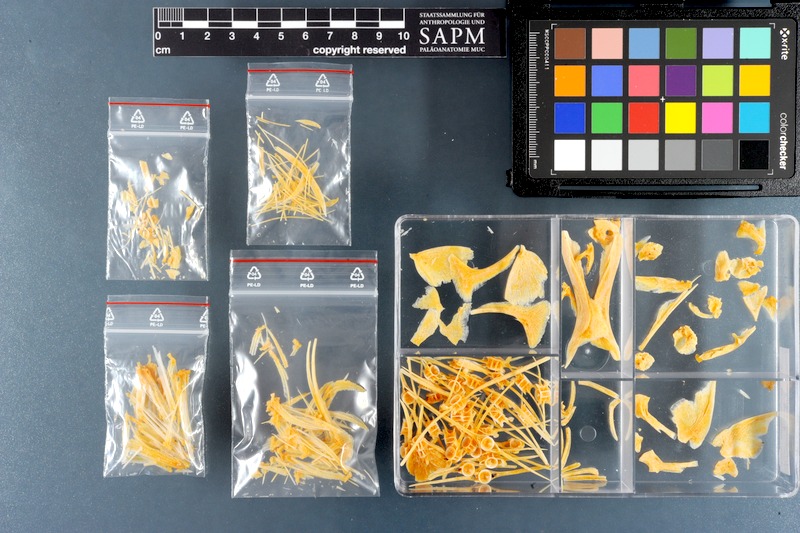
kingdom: Animalia
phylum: Chordata
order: Perciformes
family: Stromateidae
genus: Pampus
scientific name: Pampus argenteus
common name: Silver pomfret
